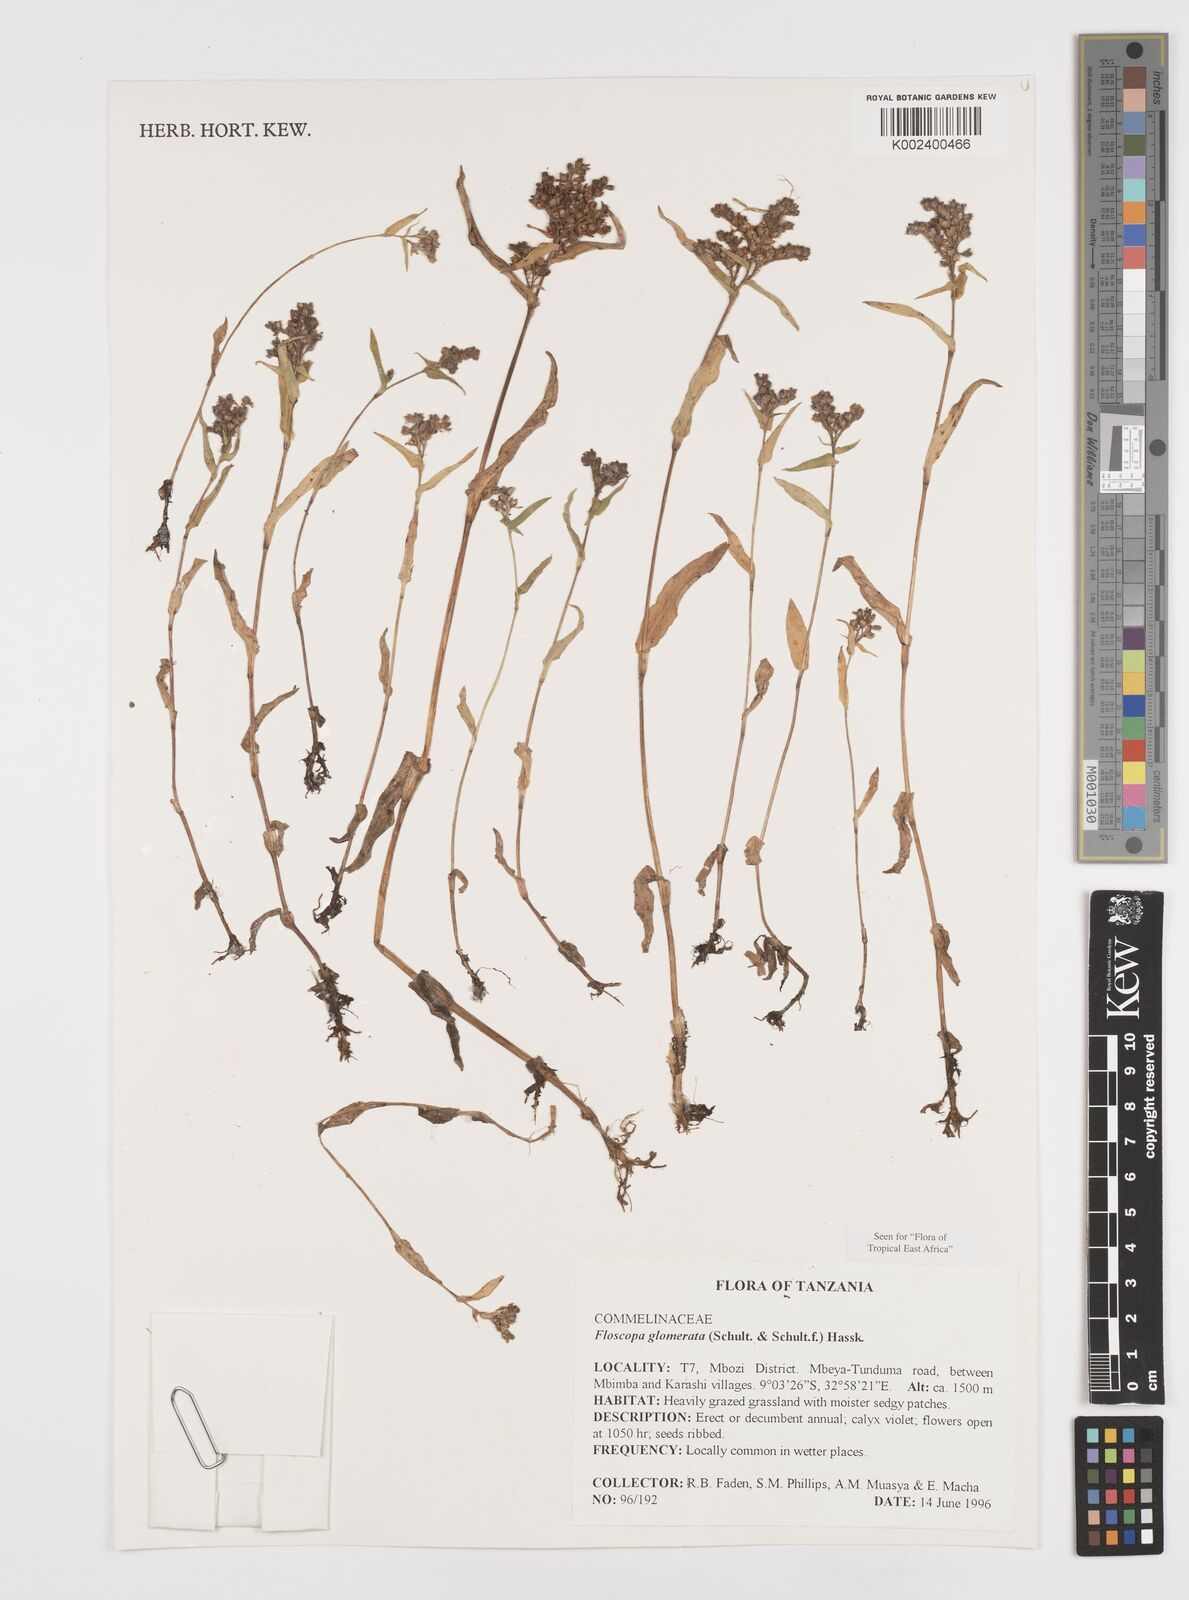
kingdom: Plantae
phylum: Tracheophyta
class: Liliopsida
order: Commelinales
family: Commelinaceae
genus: Floscopa
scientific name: Floscopa glomerata
